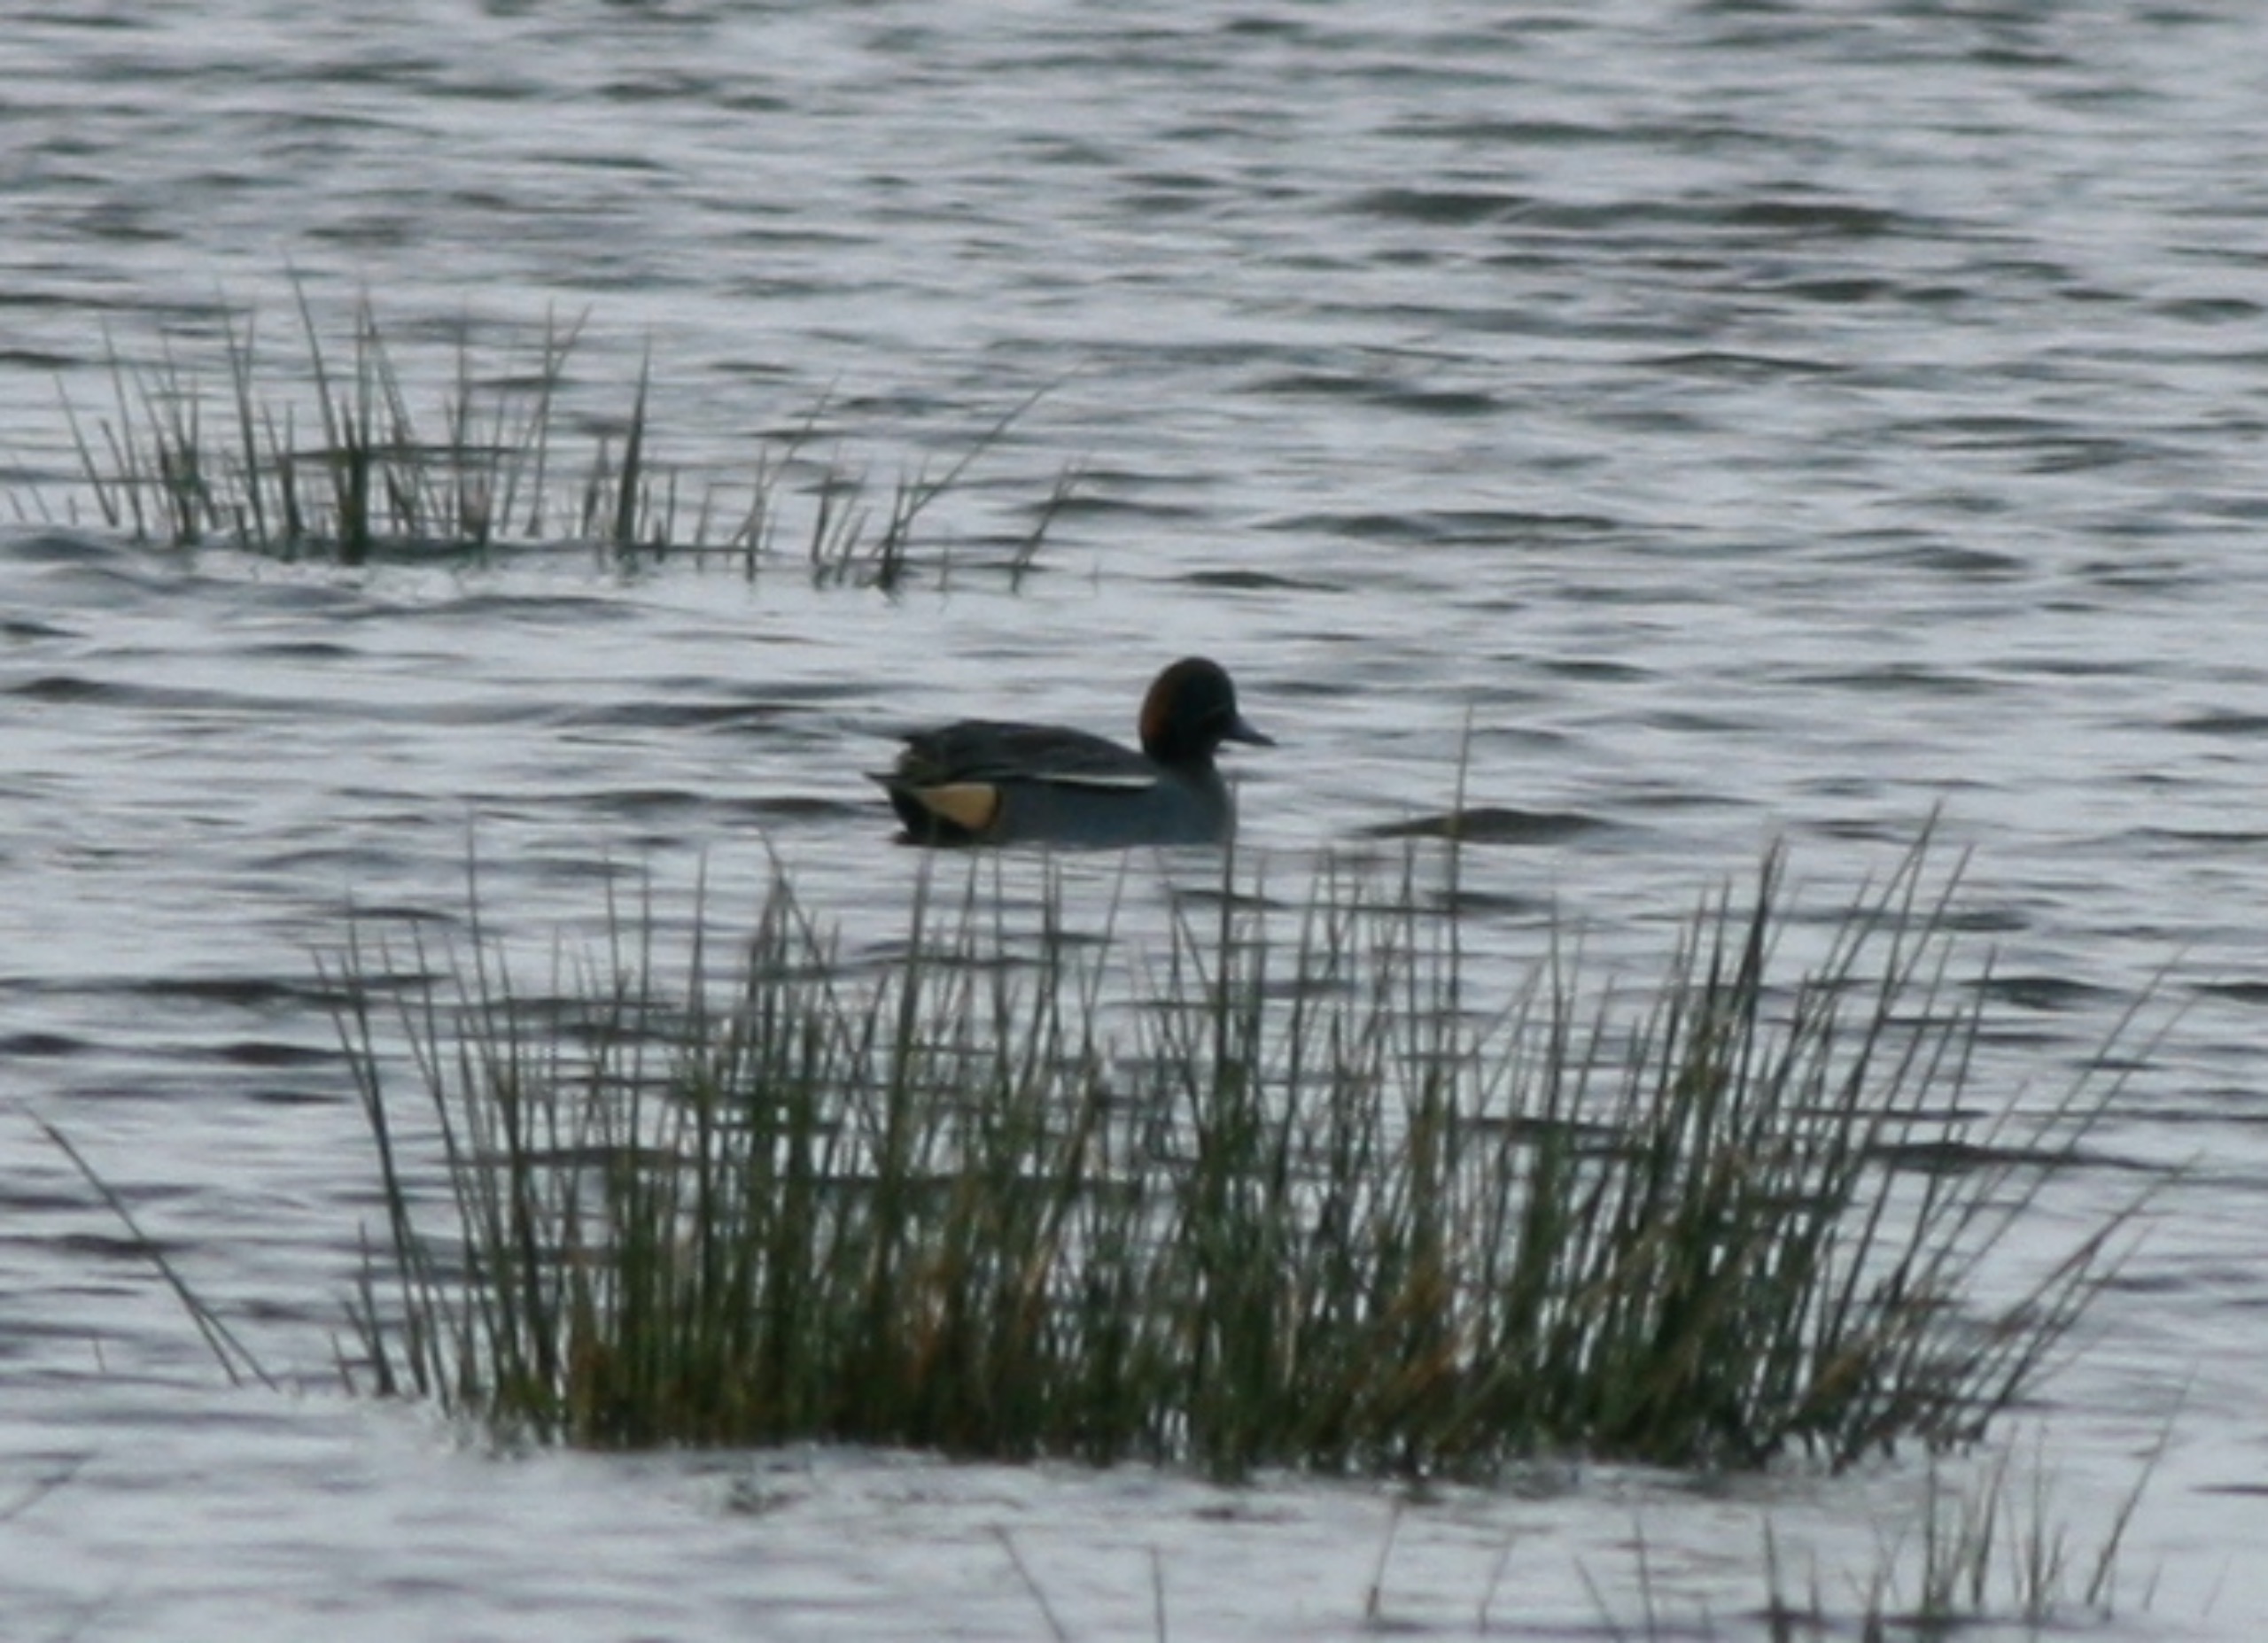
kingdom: Animalia
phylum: Chordata
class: Aves
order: Anseriformes
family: Anatidae
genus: Anas
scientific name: Anas crecca
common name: Krikand
